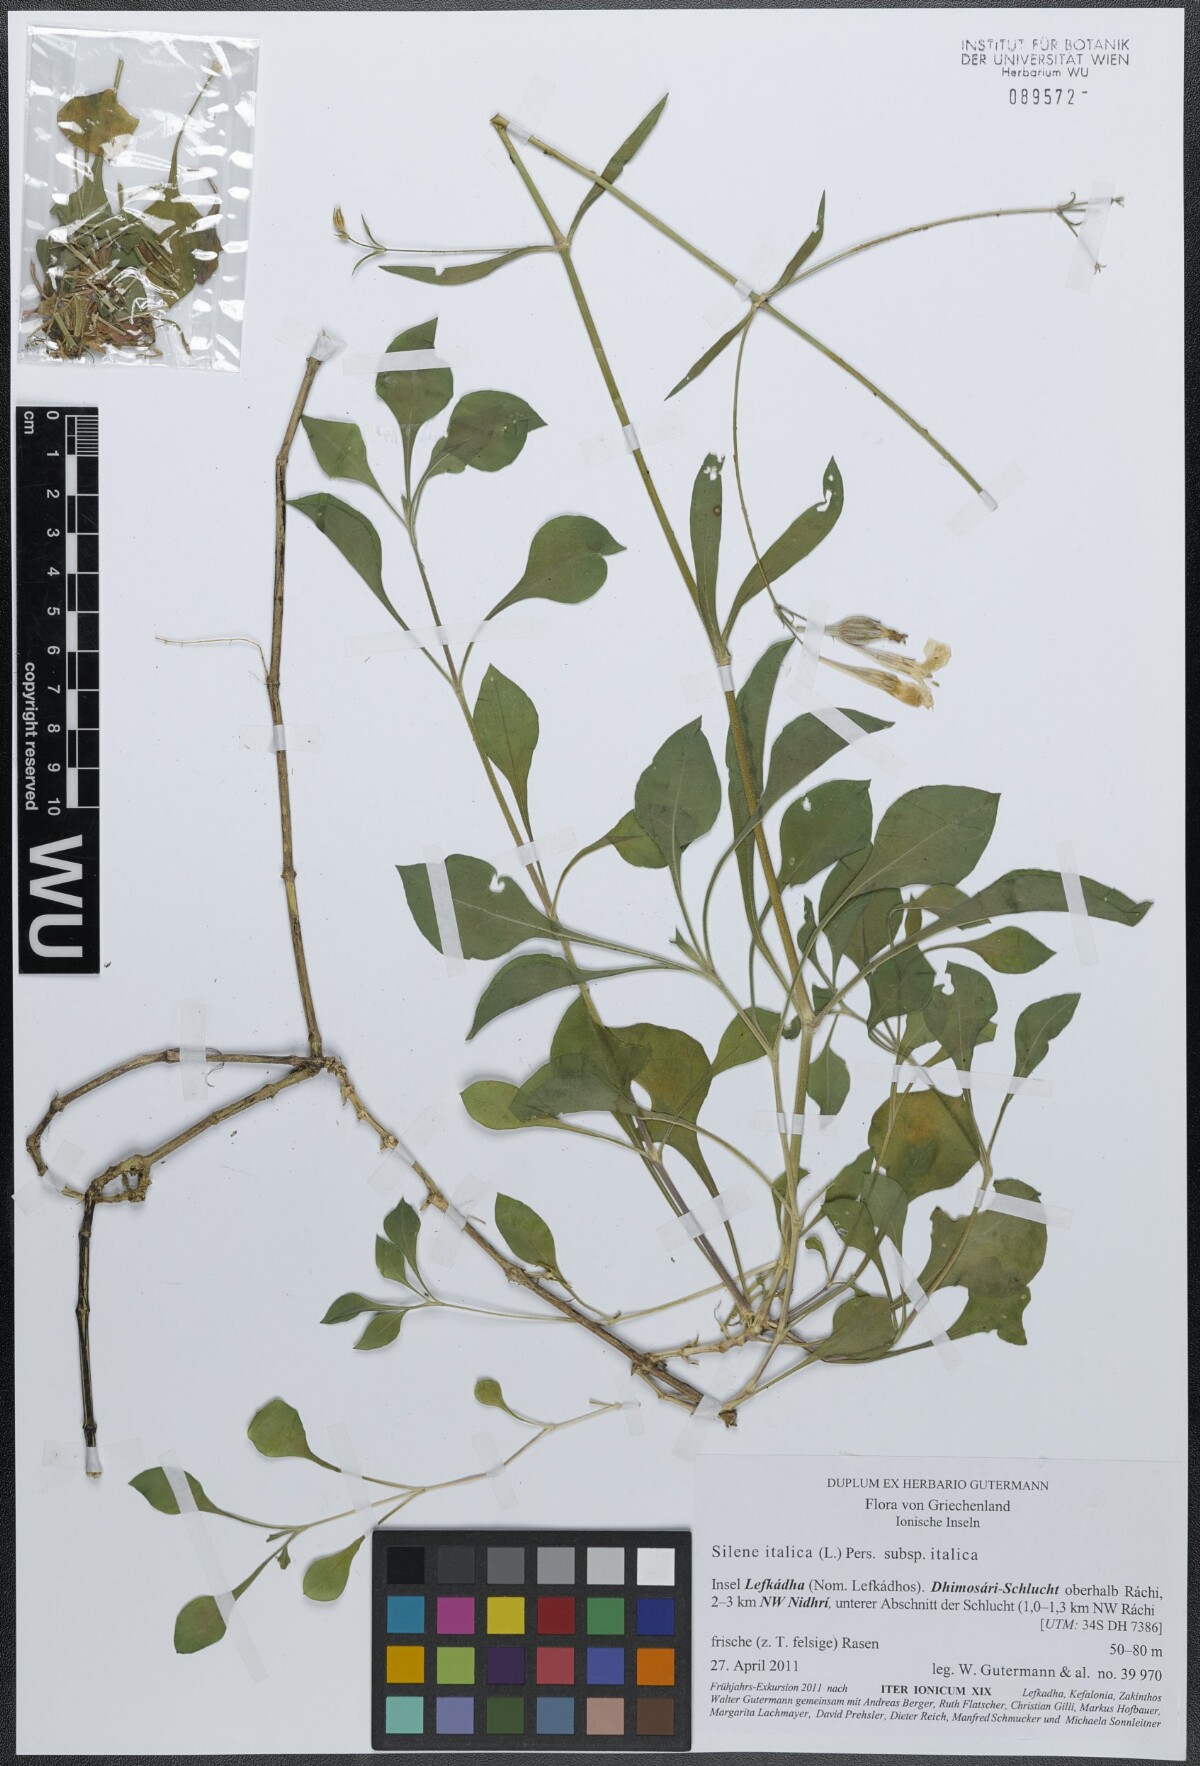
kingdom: Plantae
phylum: Tracheophyta
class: Magnoliopsida
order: Caryophyllales
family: Caryophyllaceae
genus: Silene
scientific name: Silene italica
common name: Italian catchfly
